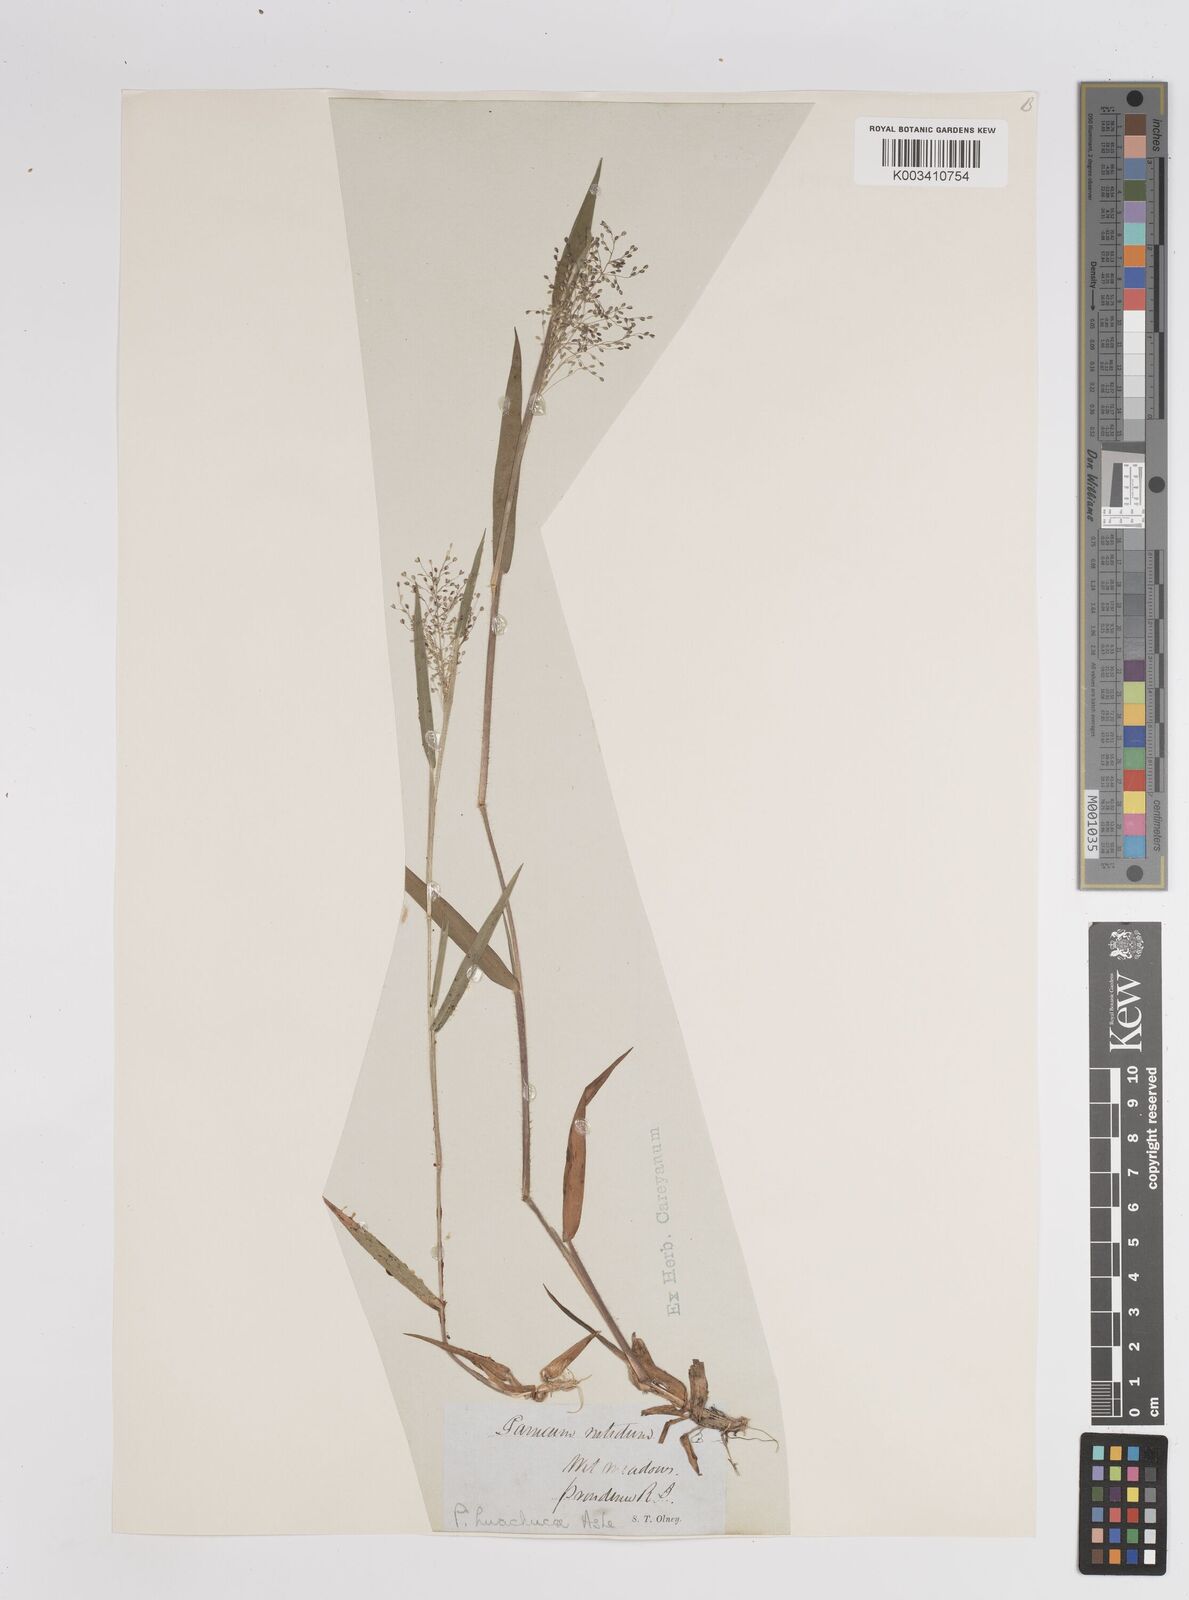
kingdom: Plantae
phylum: Tracheophyta
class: Liliopsida
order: Poales
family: Poaceae
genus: Dichanthelium
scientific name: Dichanthelium acuminatum
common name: Hairy panic grass
